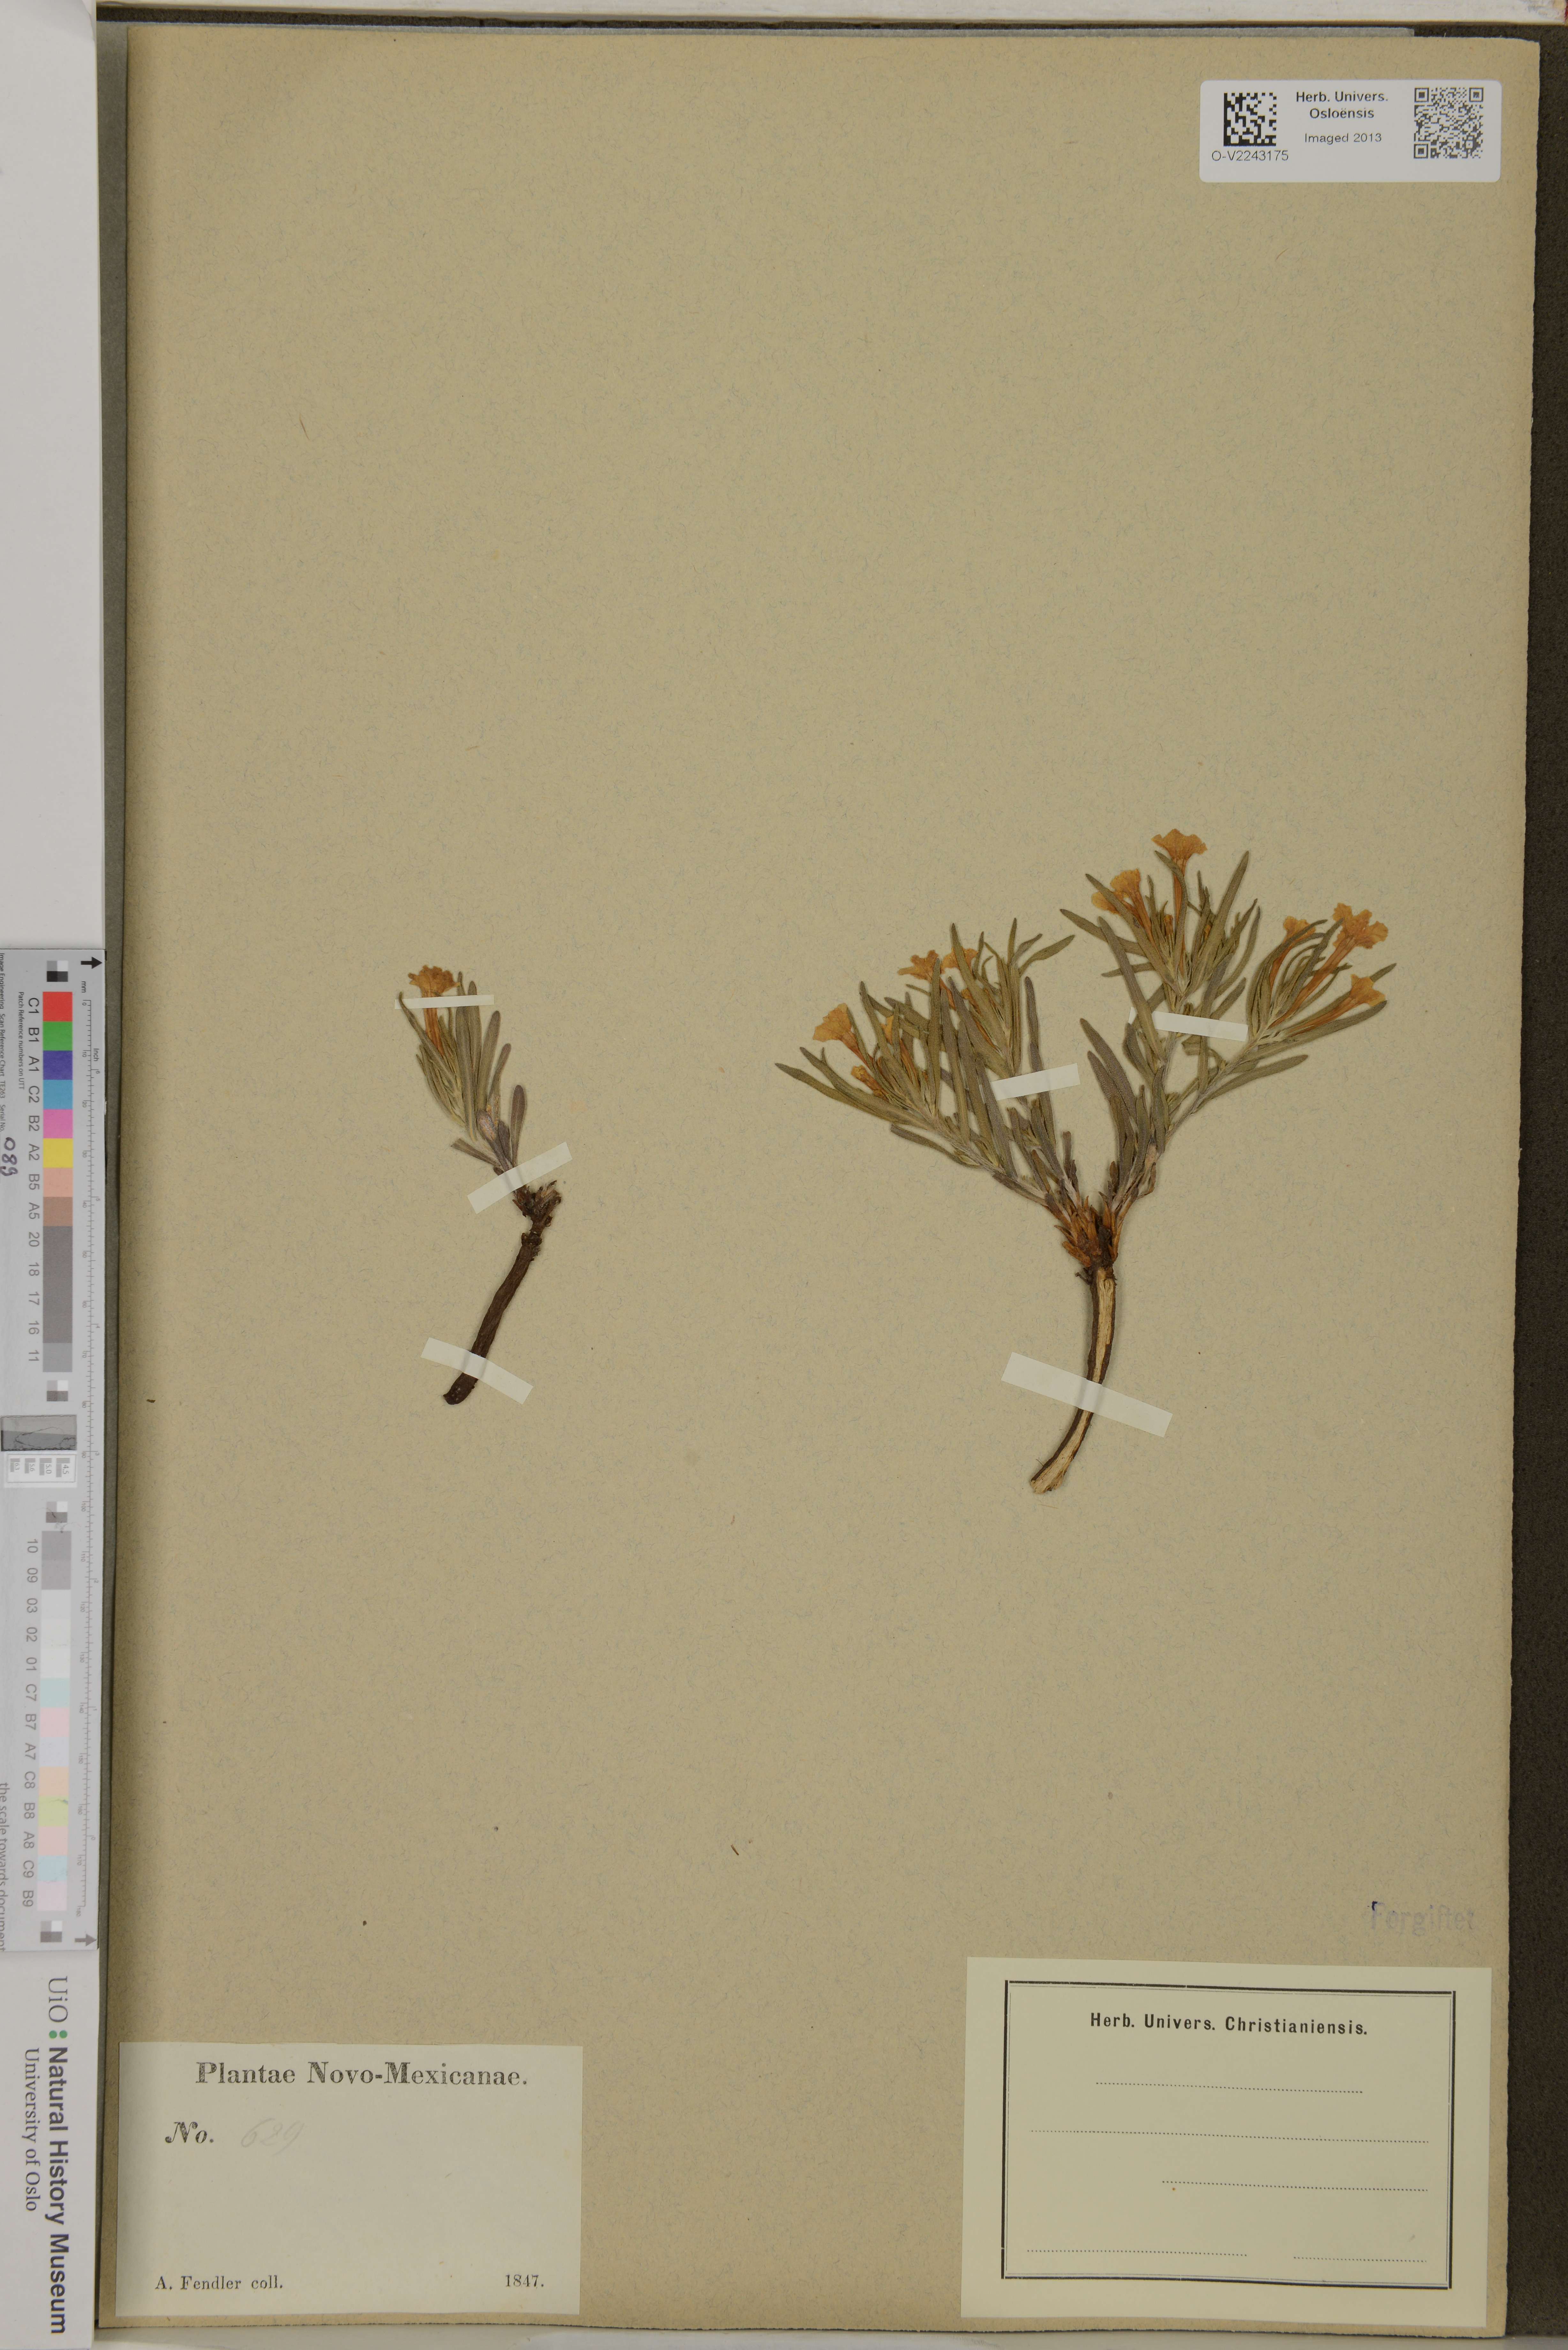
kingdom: Plantae
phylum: Tracheophyta
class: Magnoliopsida
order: Boraginales
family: Boraginaceae
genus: Lithospermum
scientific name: Lithospermum
